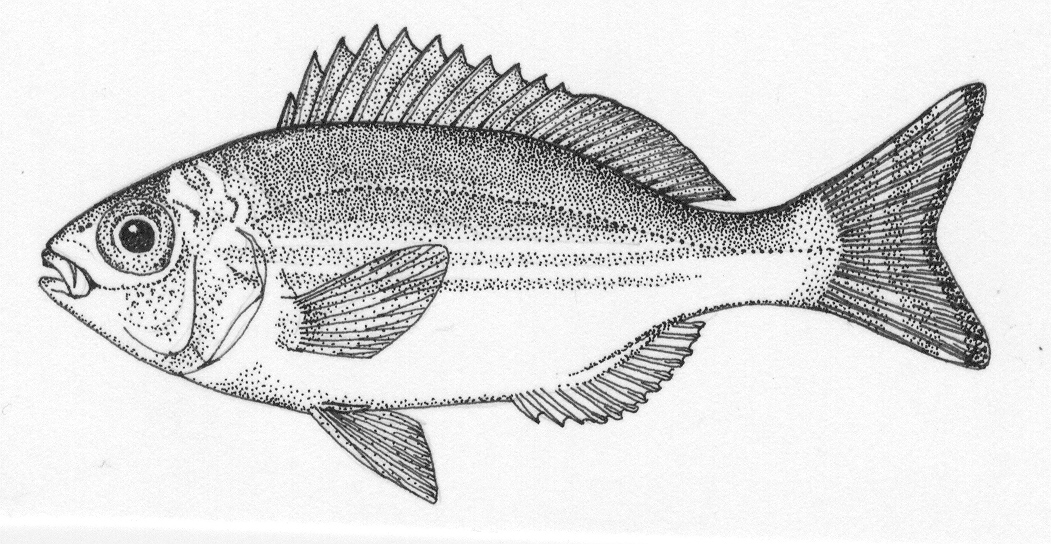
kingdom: Animalia
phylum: Chordata
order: Perciformes
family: Sparidae
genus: Spondyliosoma
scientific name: Spondyliosoma emarginatum
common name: Steentje seabream
